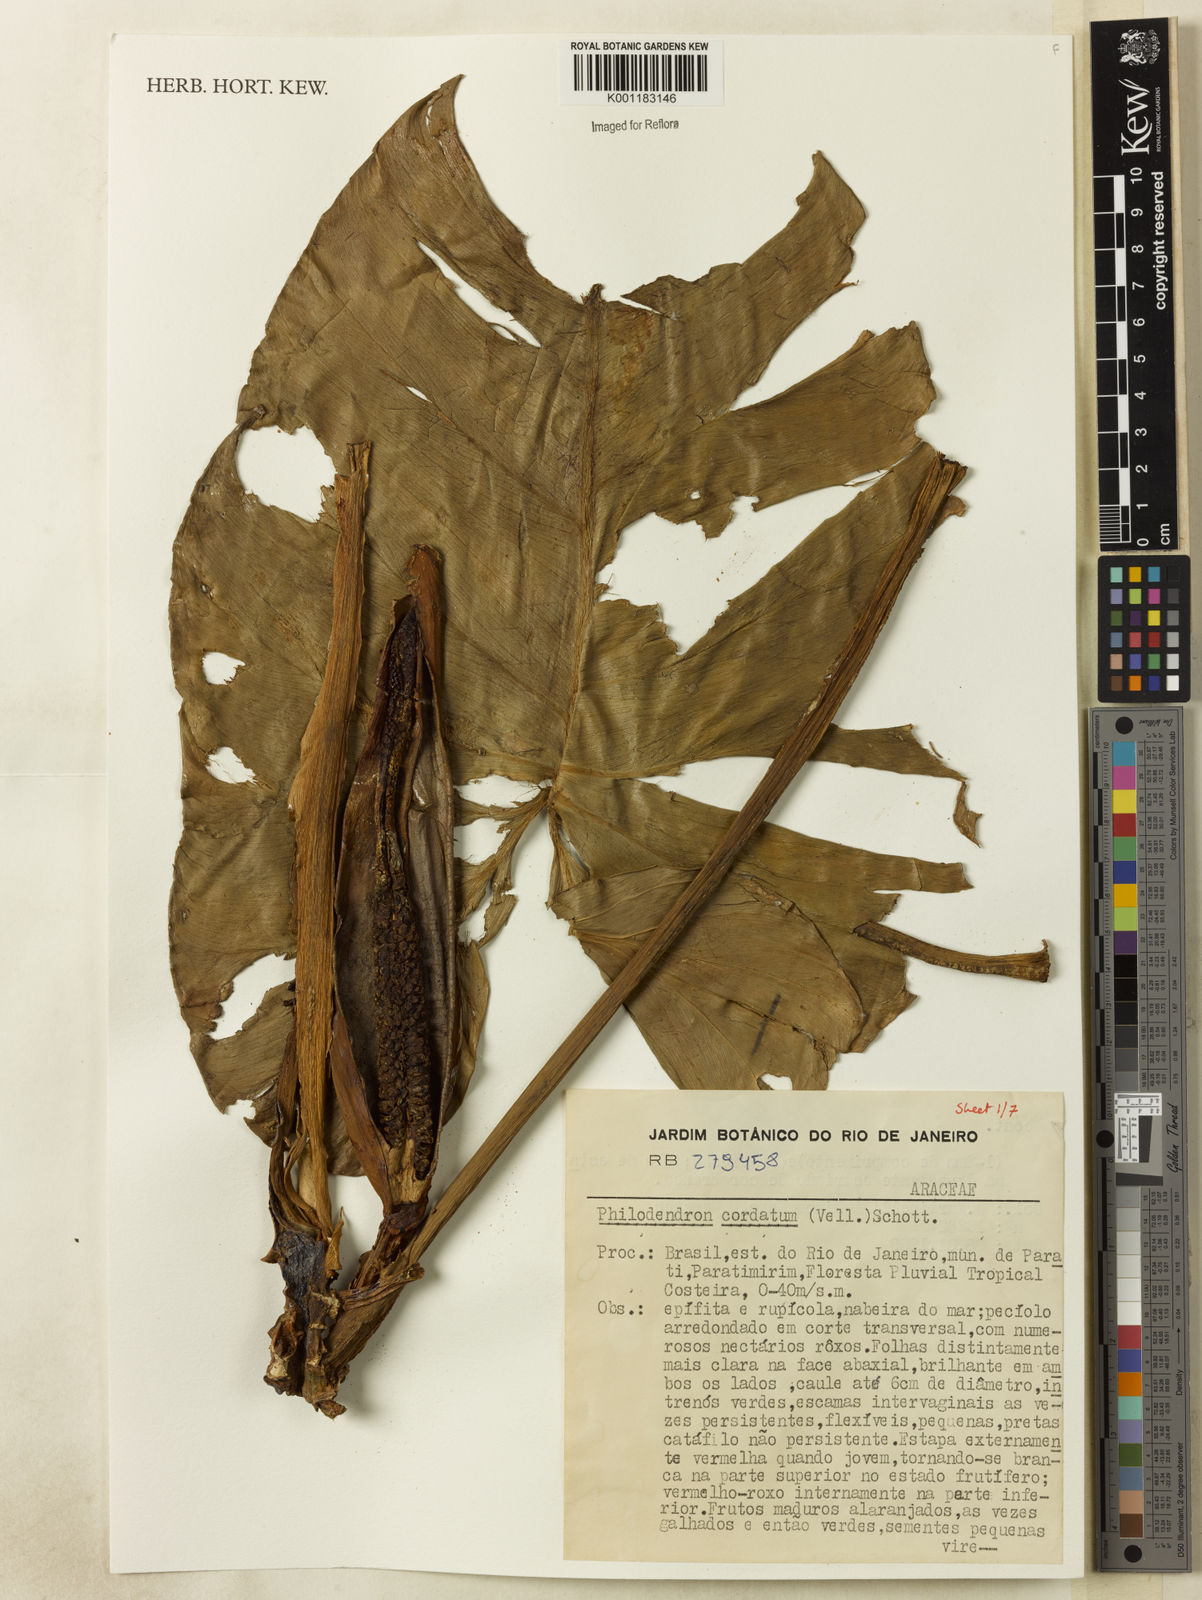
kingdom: Plantae
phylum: Tracheophyta
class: Liliopsida
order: Alismatales
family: Araceae
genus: Philodendron
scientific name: Philodendron cordatum
